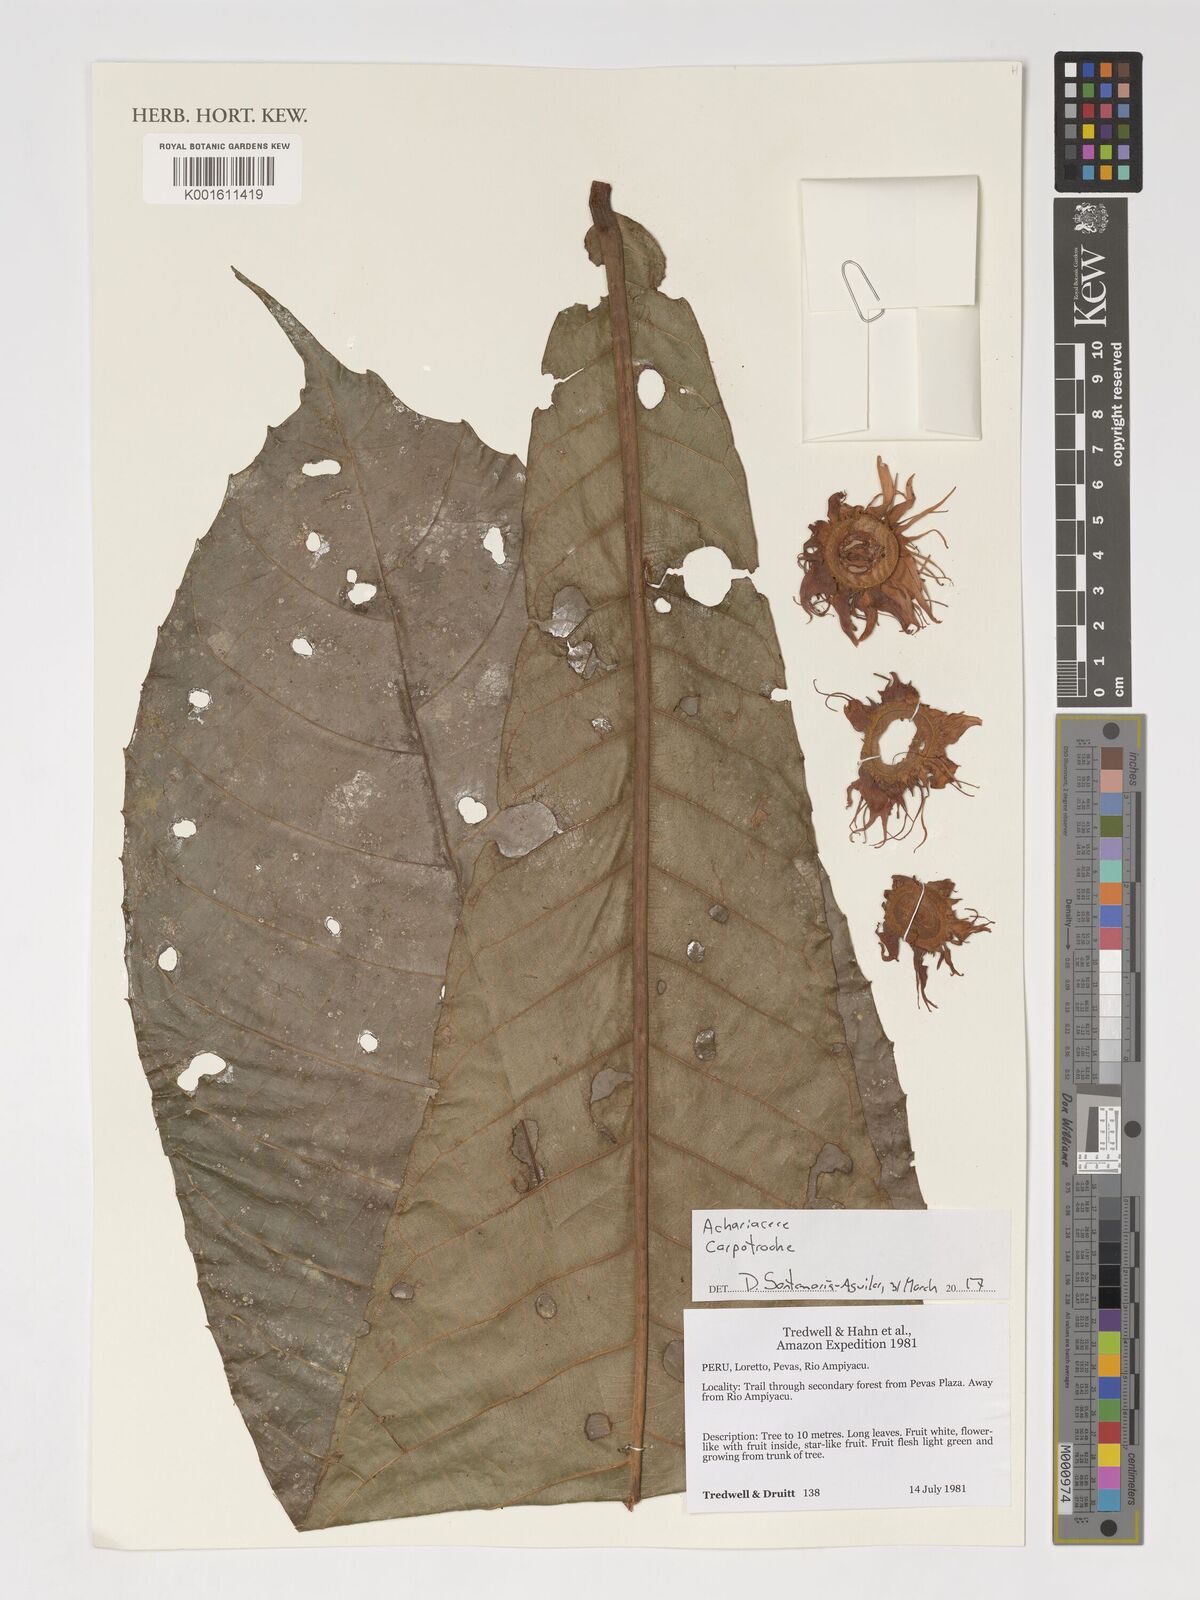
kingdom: Plantae
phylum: Tracheophyta
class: Magnoliopsida
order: Malpighiales
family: Achariaceae
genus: Carpotroche
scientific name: Carpotroche
